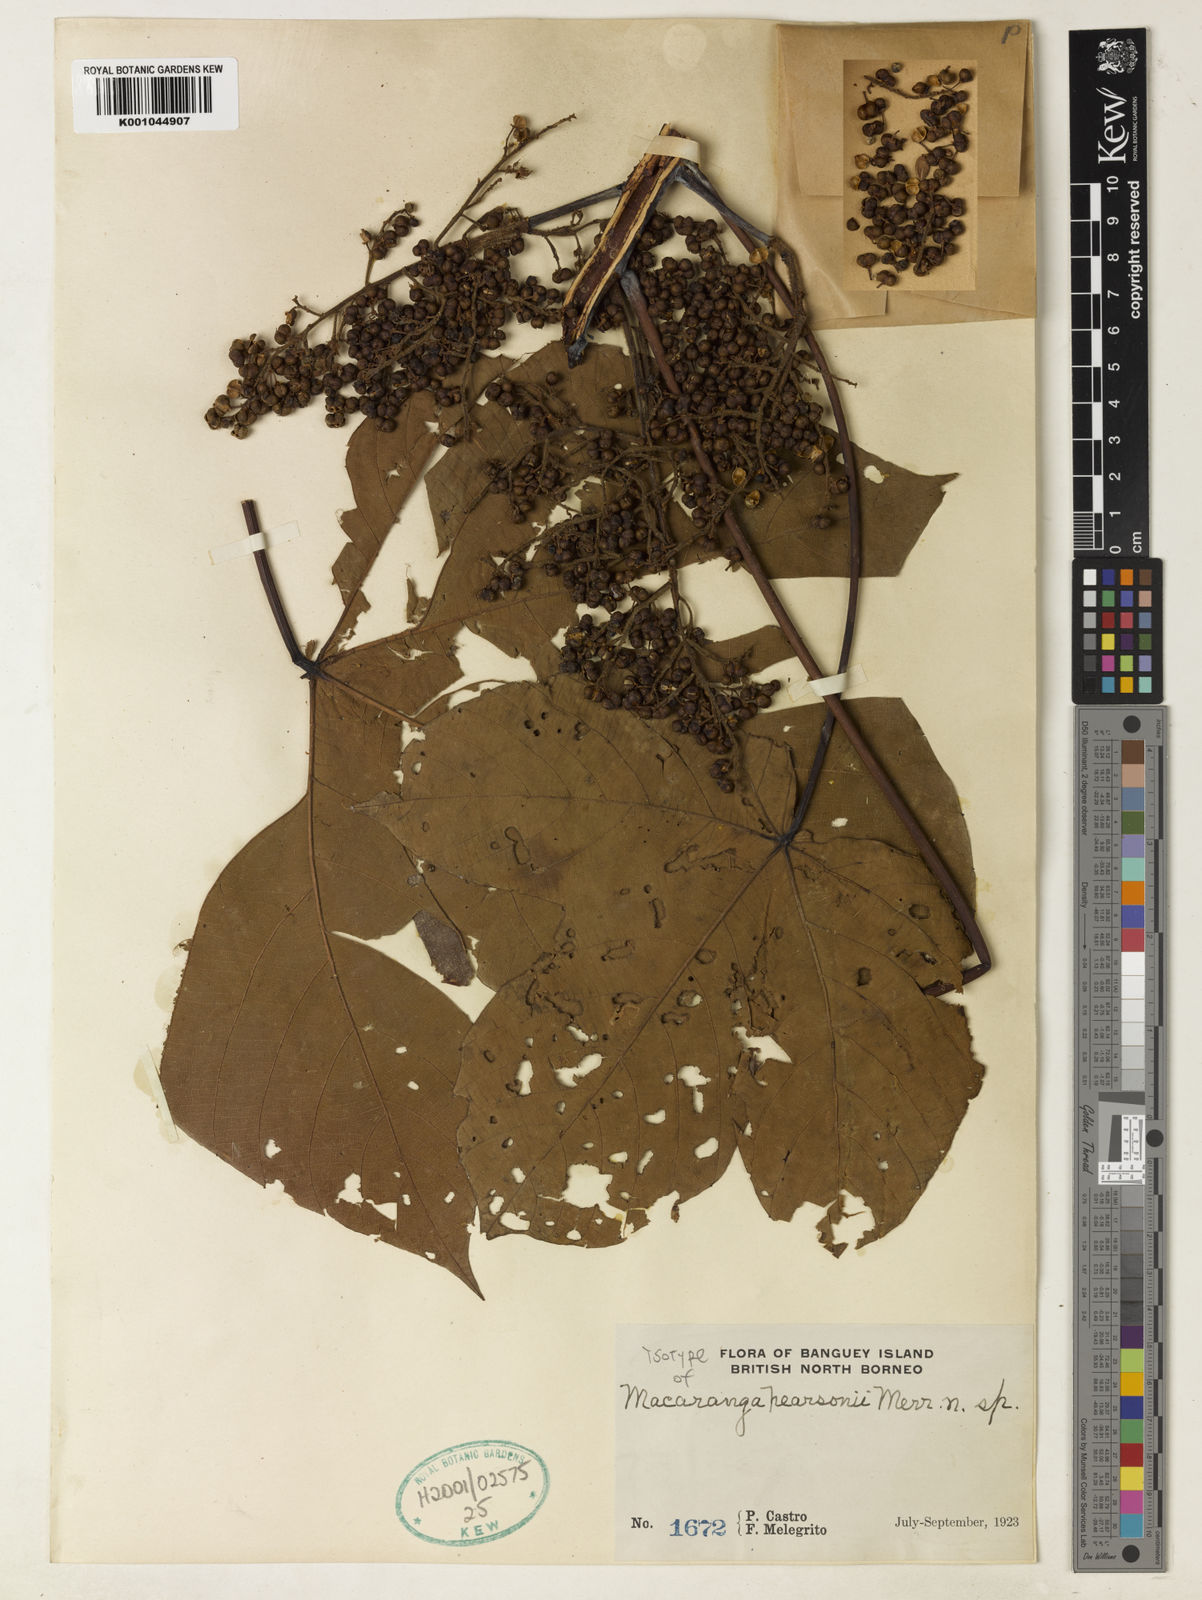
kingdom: Plantae
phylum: Tracheophyta
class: Magnoliopsida
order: Malpighiales
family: Euphorbiaceae
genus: Macaranga
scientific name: Macaranga pearsonii
